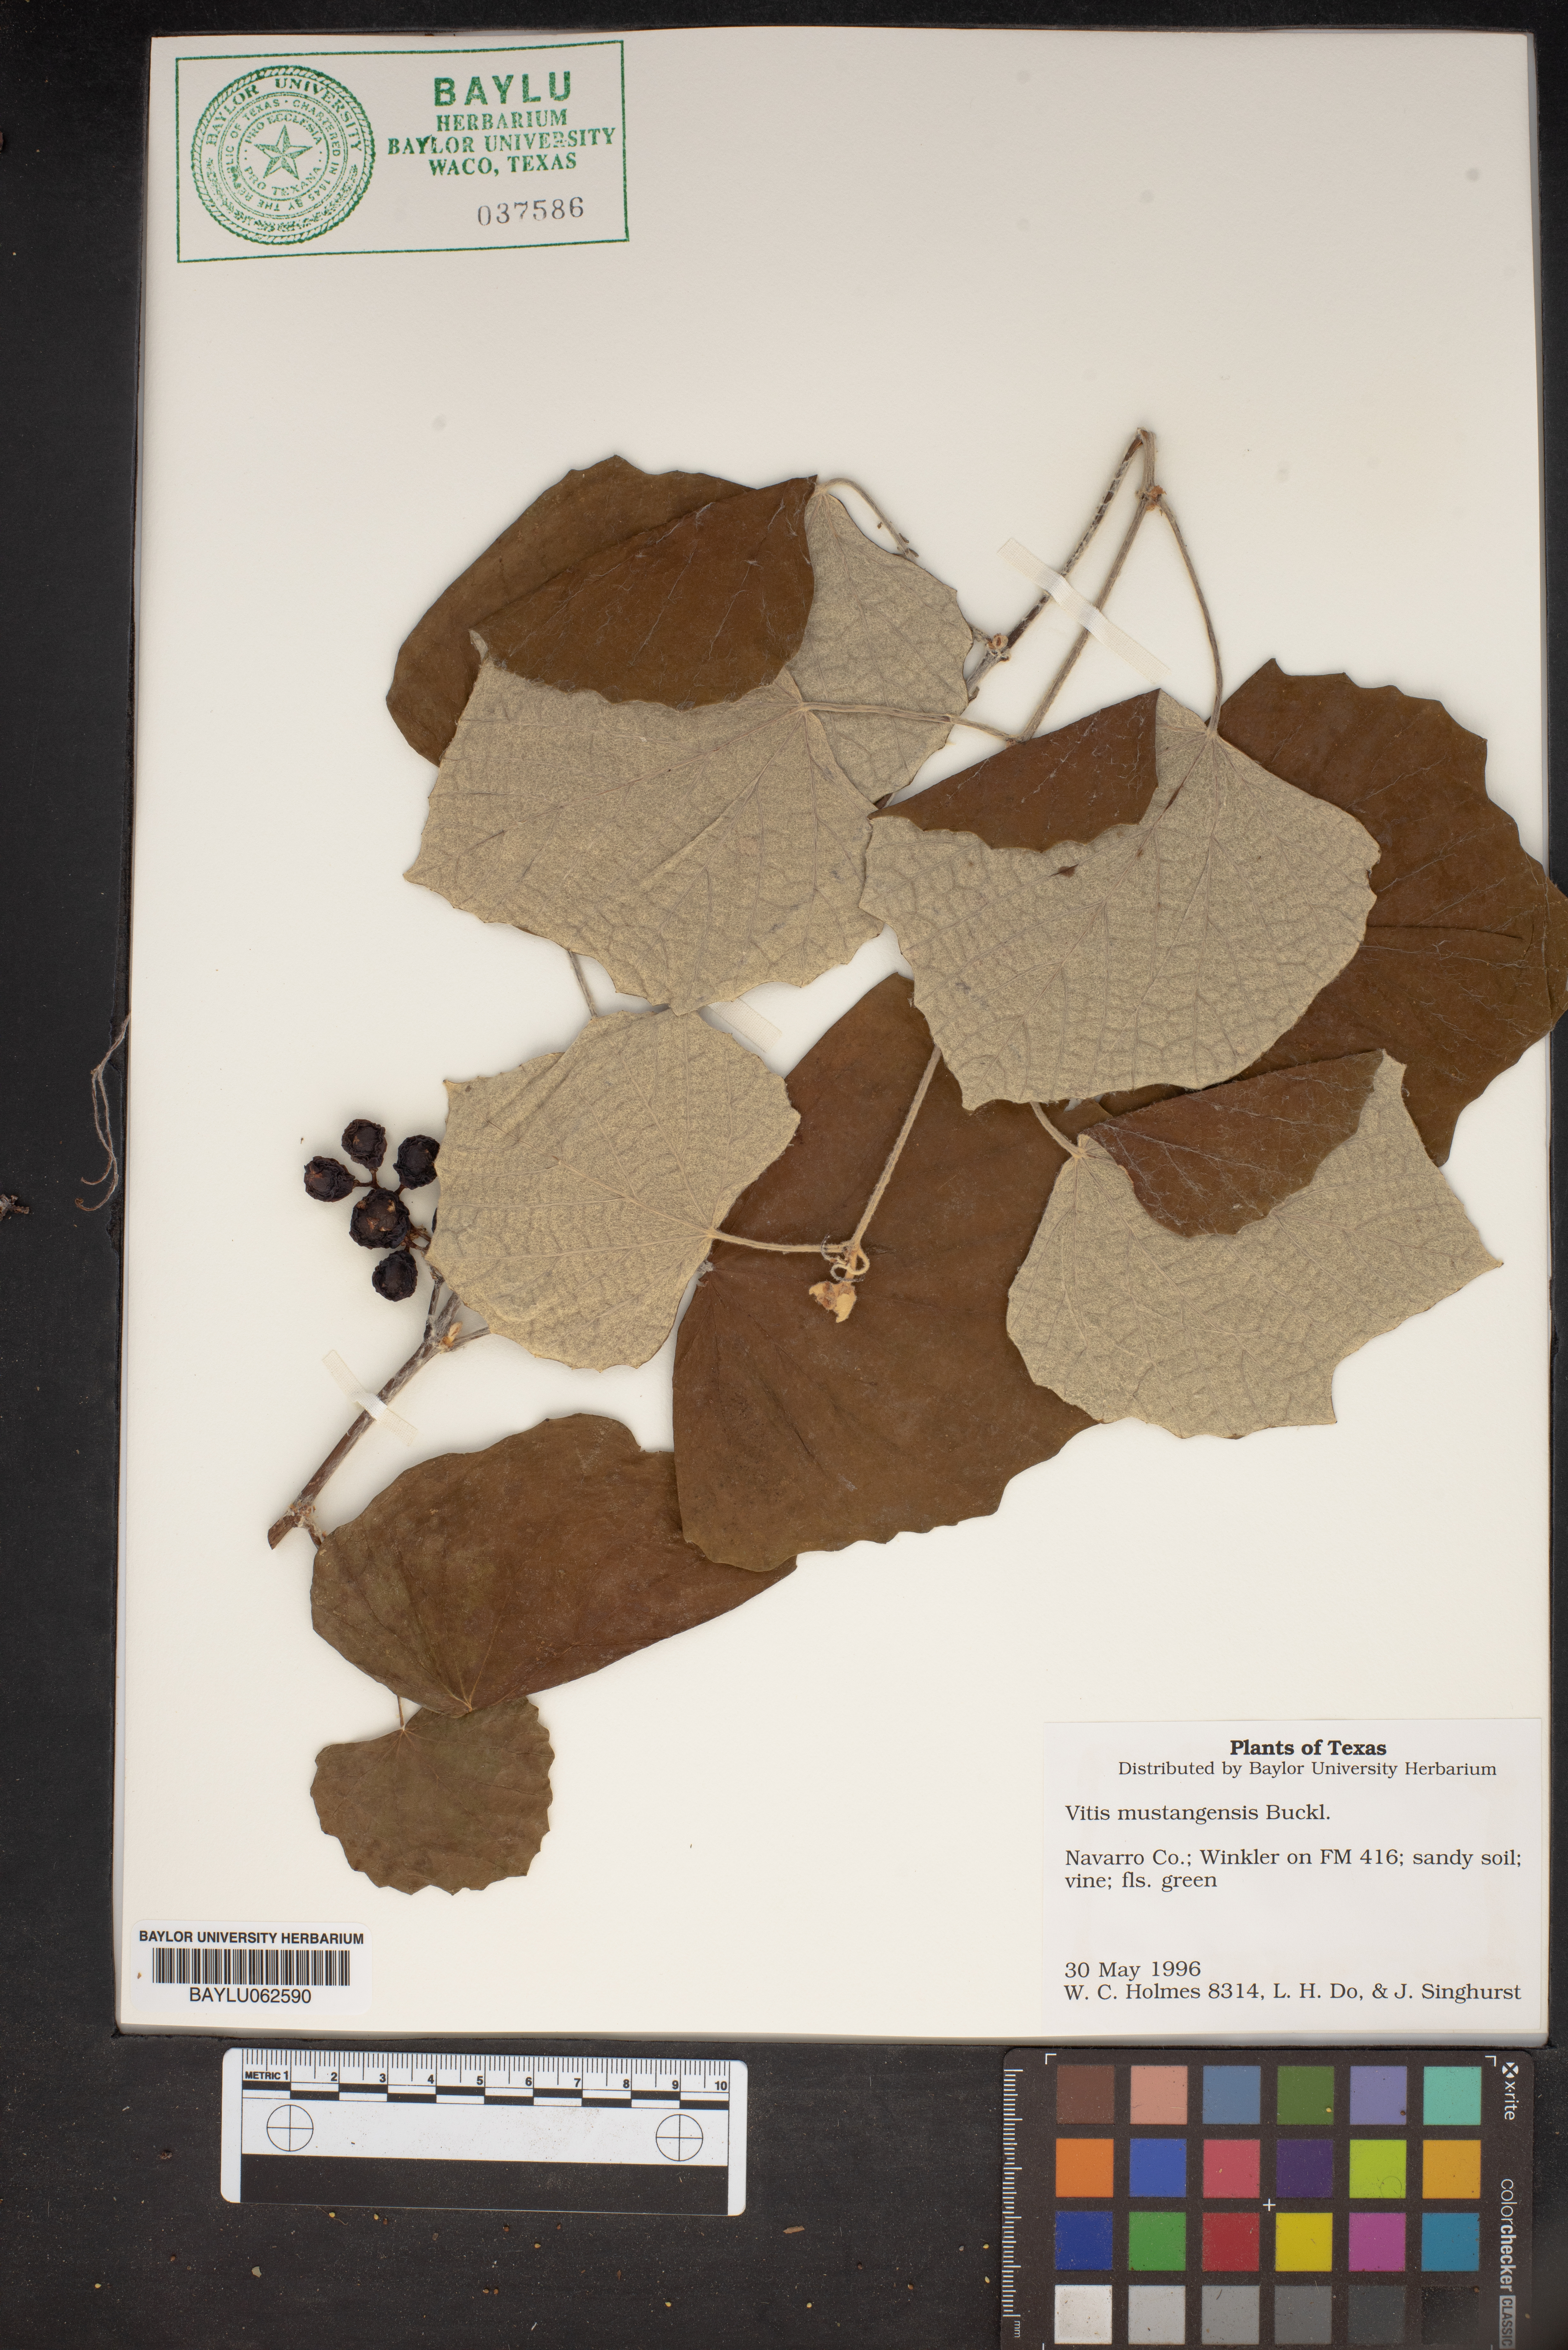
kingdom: Plantae
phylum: Tracheophyta
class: Magnoliopsida
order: Vitales
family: Vitaceae
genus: Vitis
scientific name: Vitis mustangensis
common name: Mustang grape
